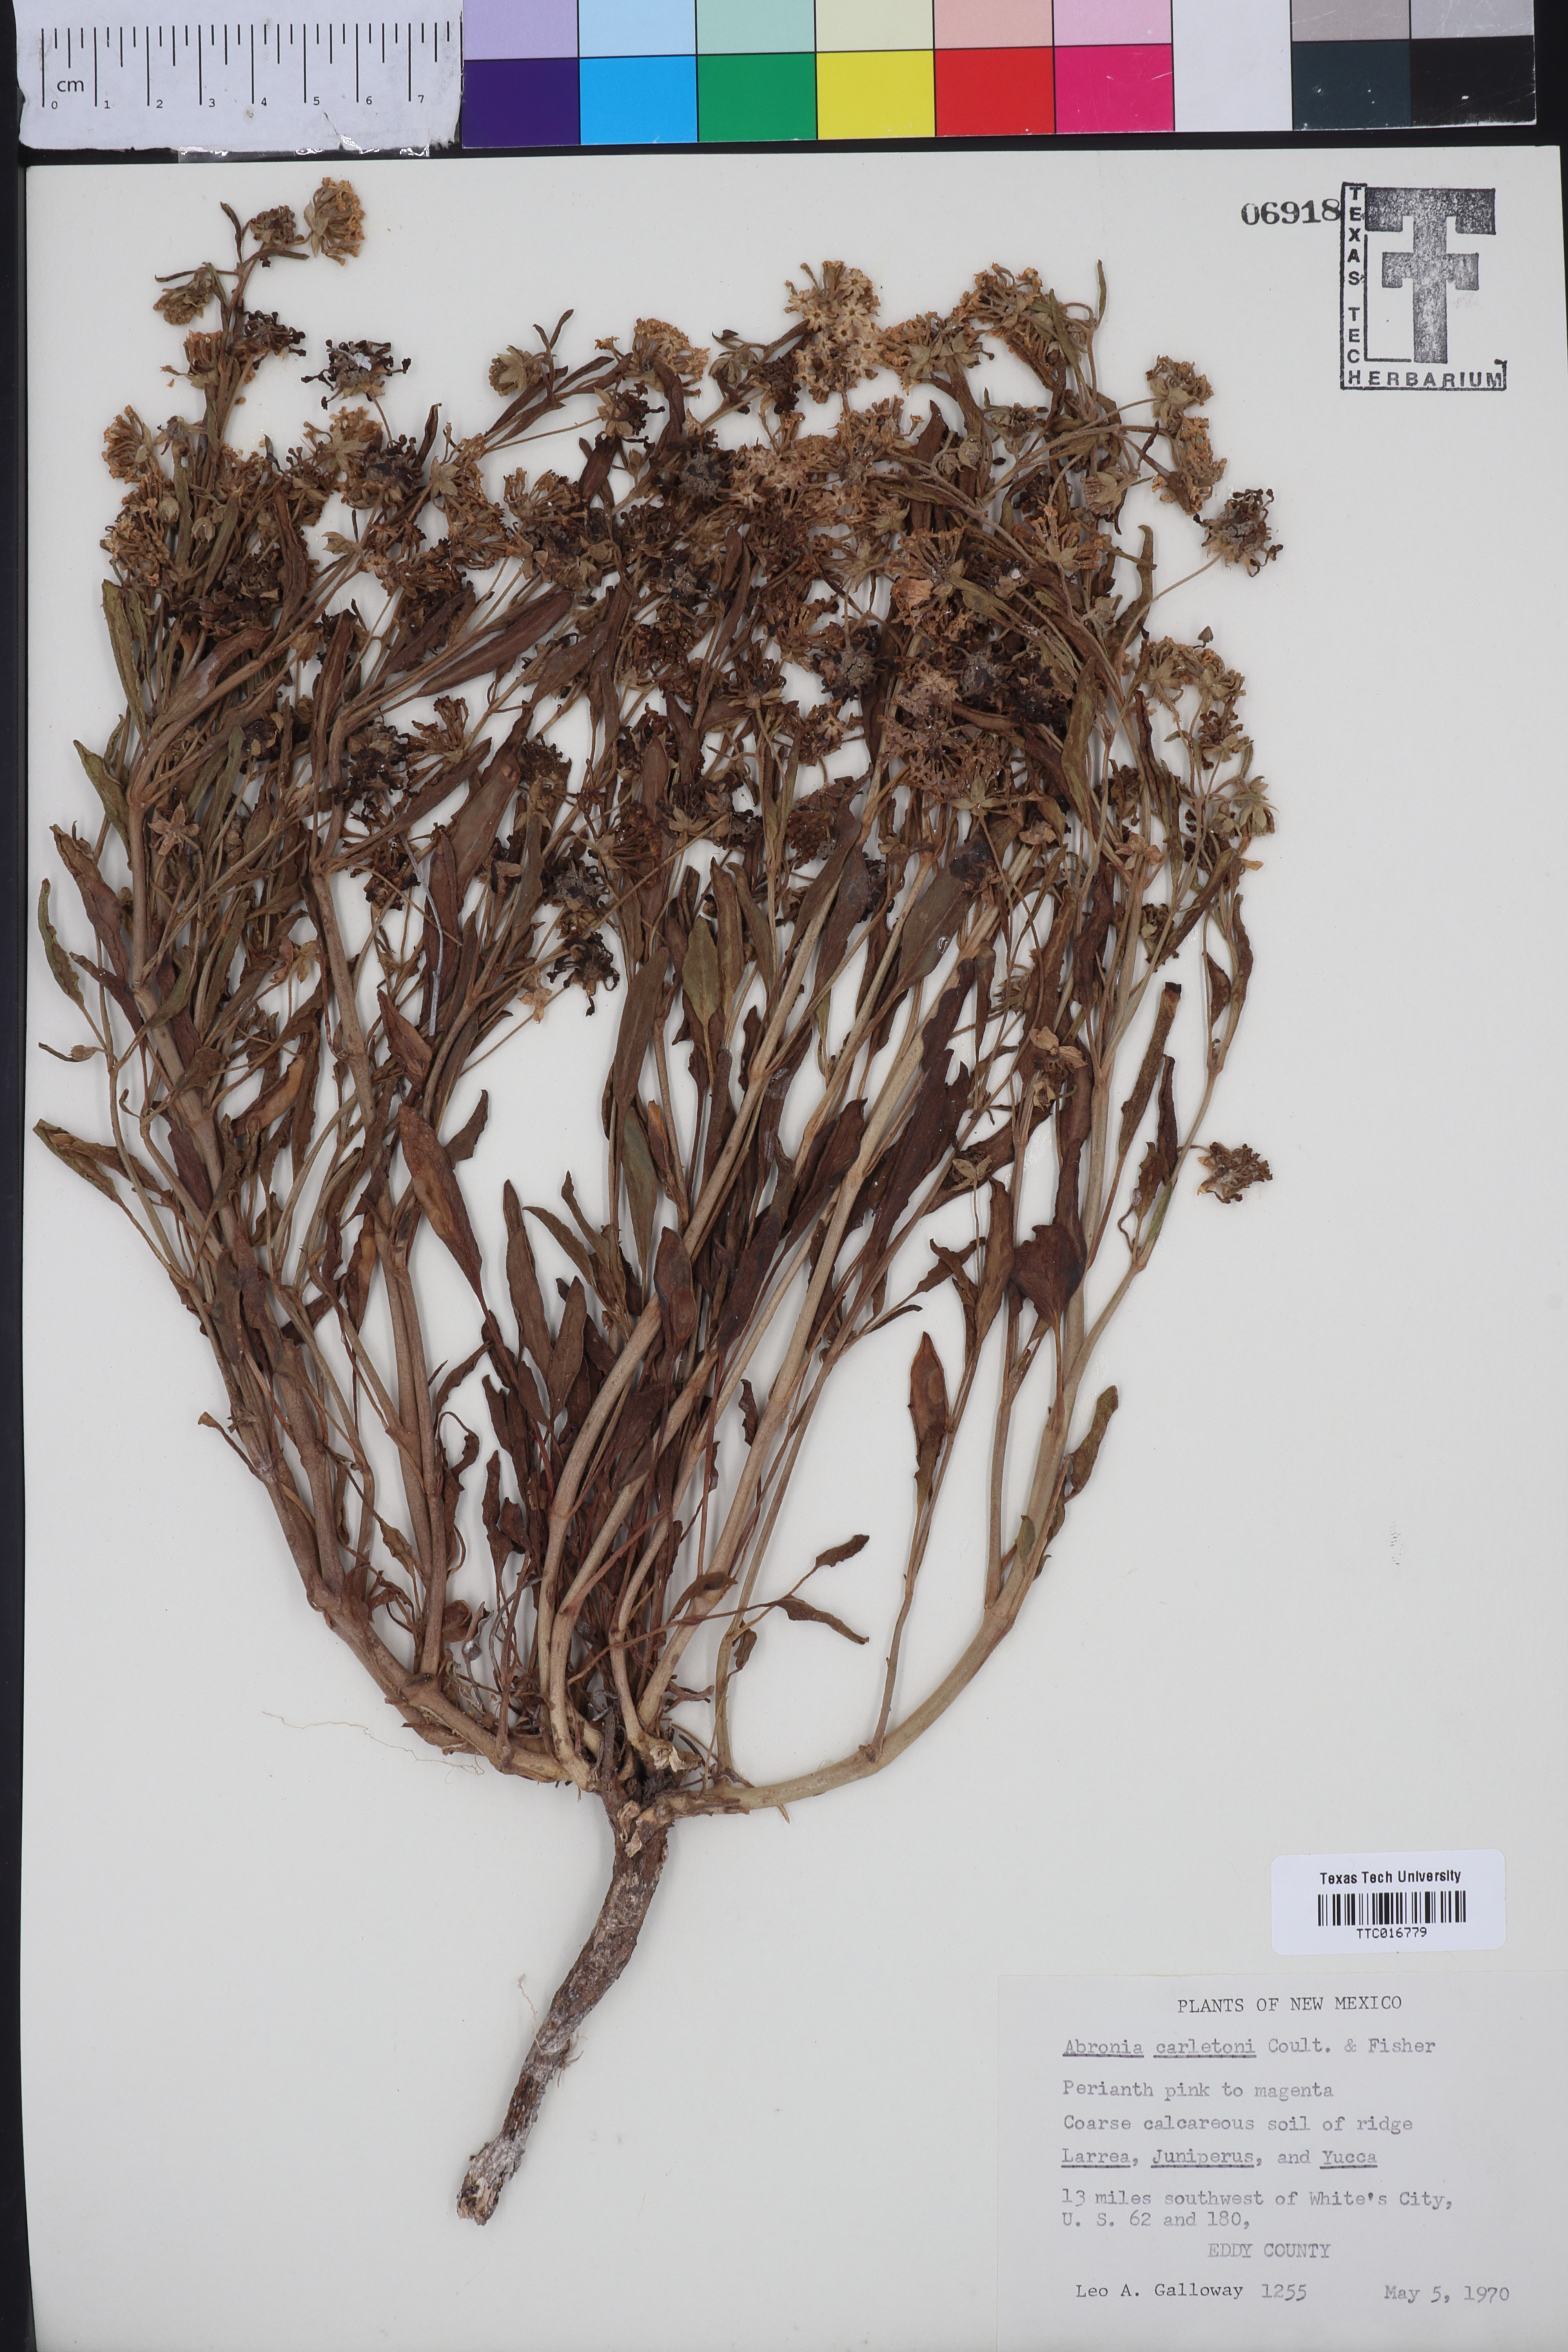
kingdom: Plantae
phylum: Tracheophyta
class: Magnoliopsida
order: Caryophyllales
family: Nyctaginaceae
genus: Abronia
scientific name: Abronia carletonii
